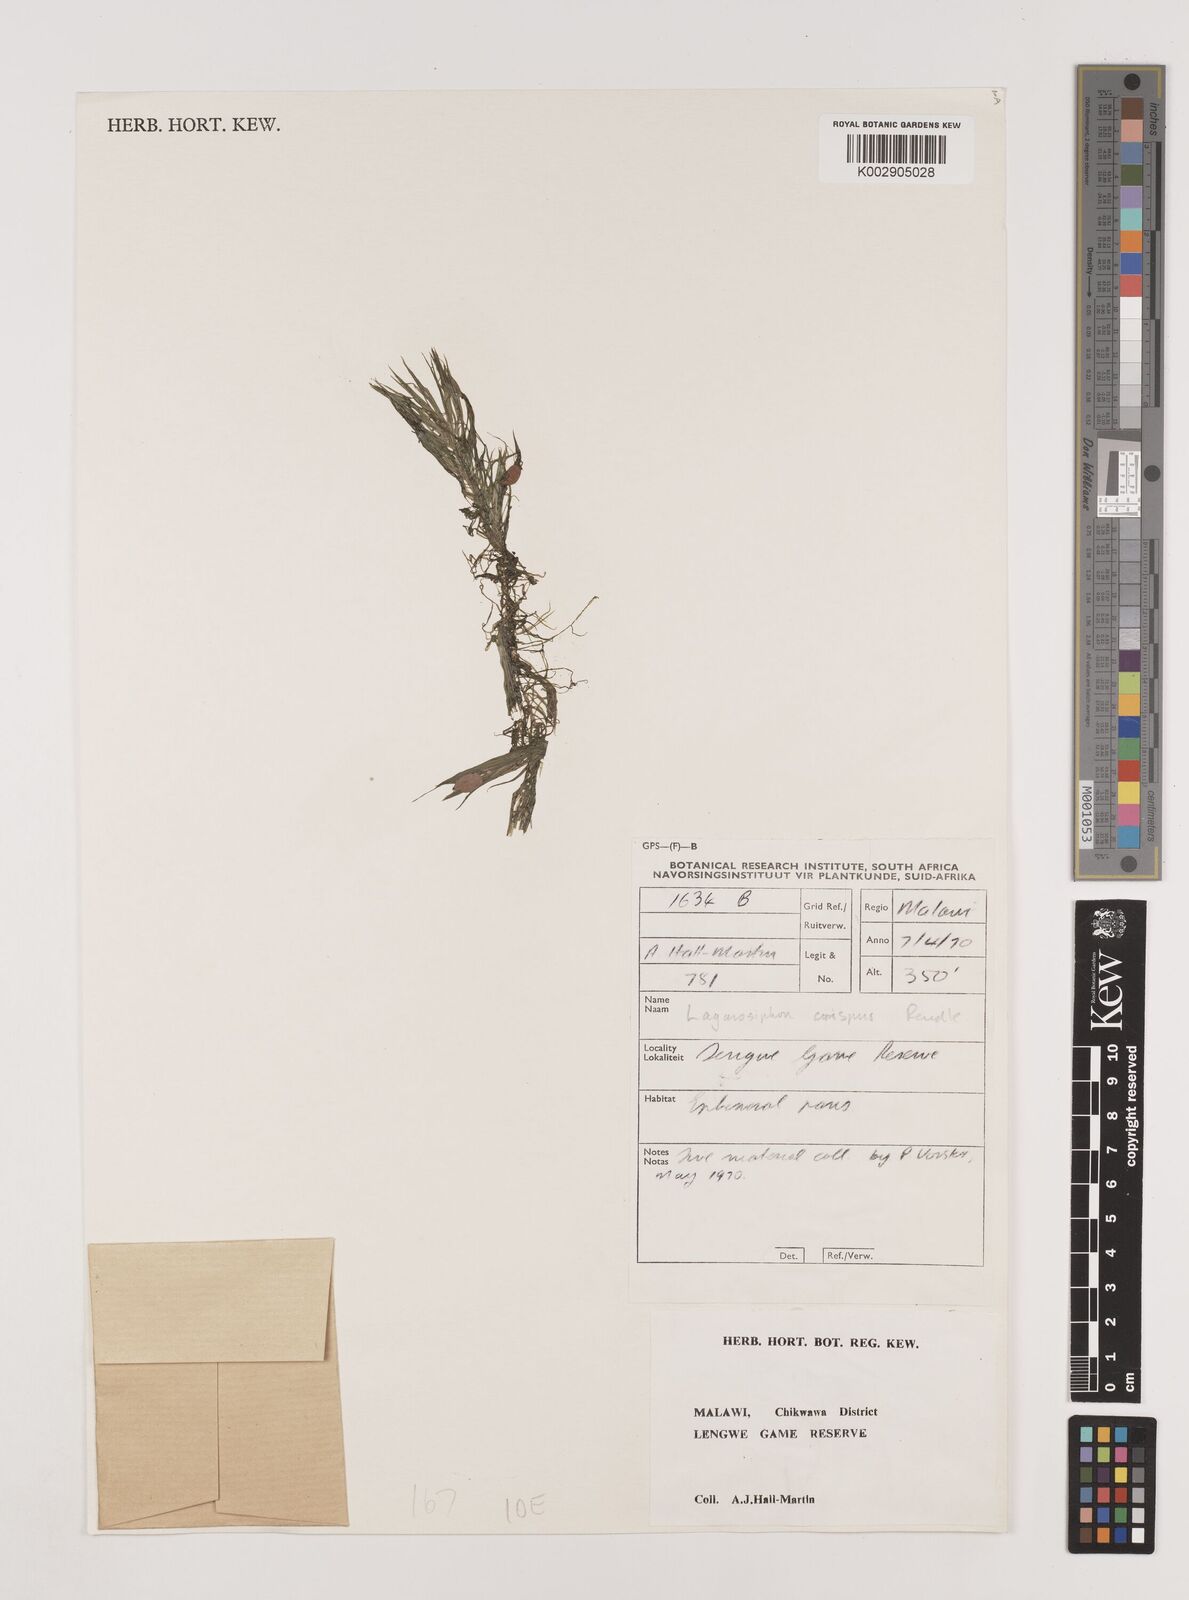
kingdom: Plantae
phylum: Tracheophyta
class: Liliopsida
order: Alismatales
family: Hydrocharitaceae
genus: Lagarosiphon
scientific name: Lagarosiphon cordofanus
